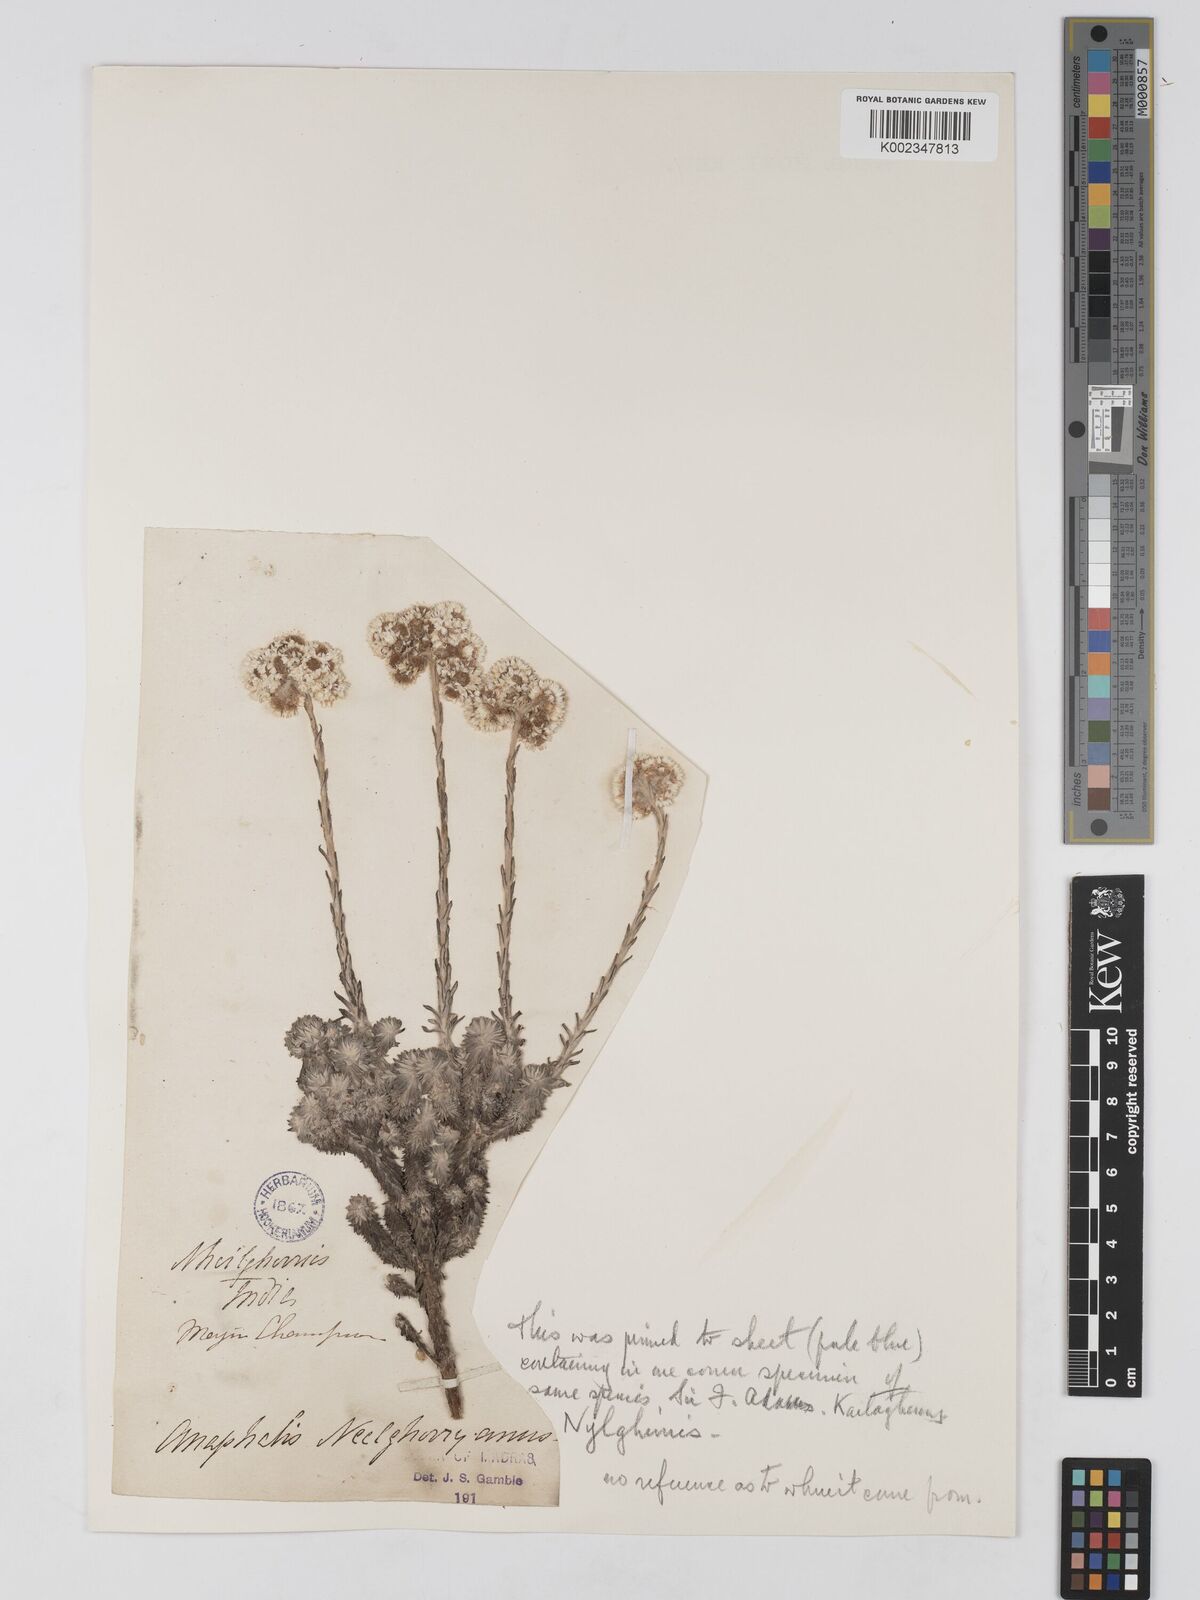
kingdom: Plantae
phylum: Tracheophyta
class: Magnoliopsida
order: Asterales
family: Asteraceae
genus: Anaphalis
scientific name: Anaphalis neelgerryana
